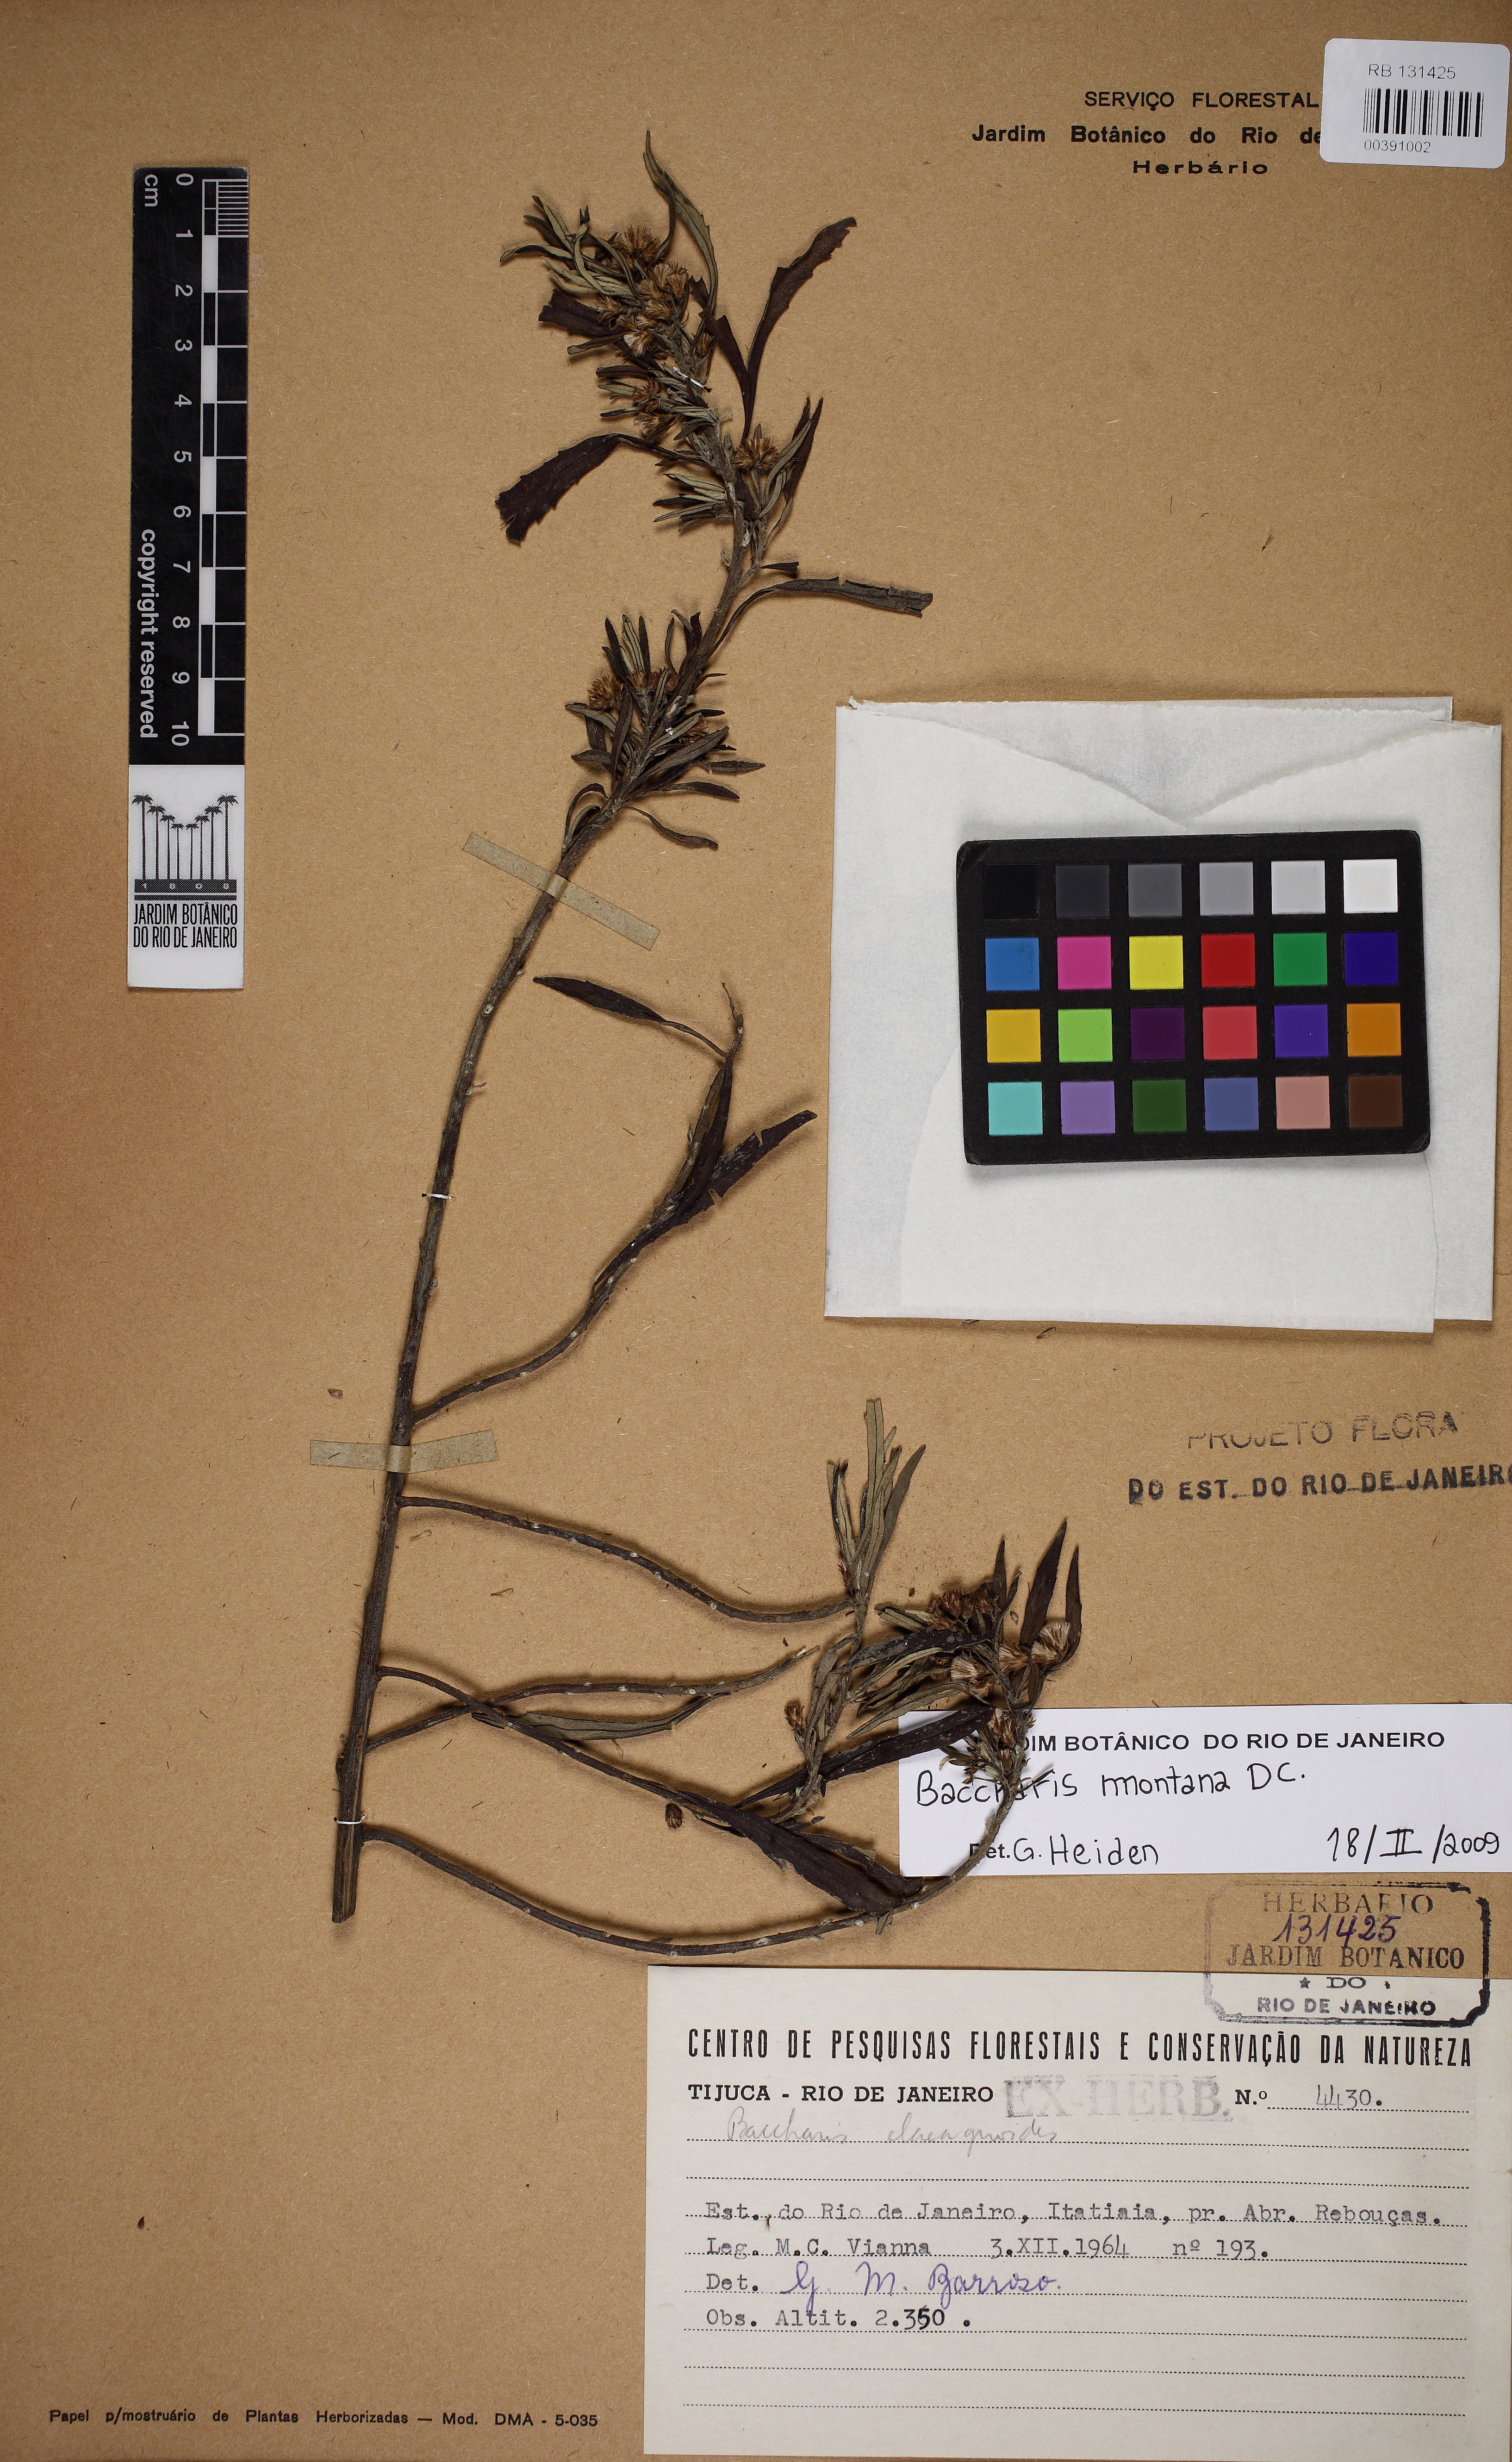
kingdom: Plantae
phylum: Tracheophyta
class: Magnoliopsida
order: Asterales
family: Asteraceae
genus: Baccharis
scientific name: Baccharis montana
